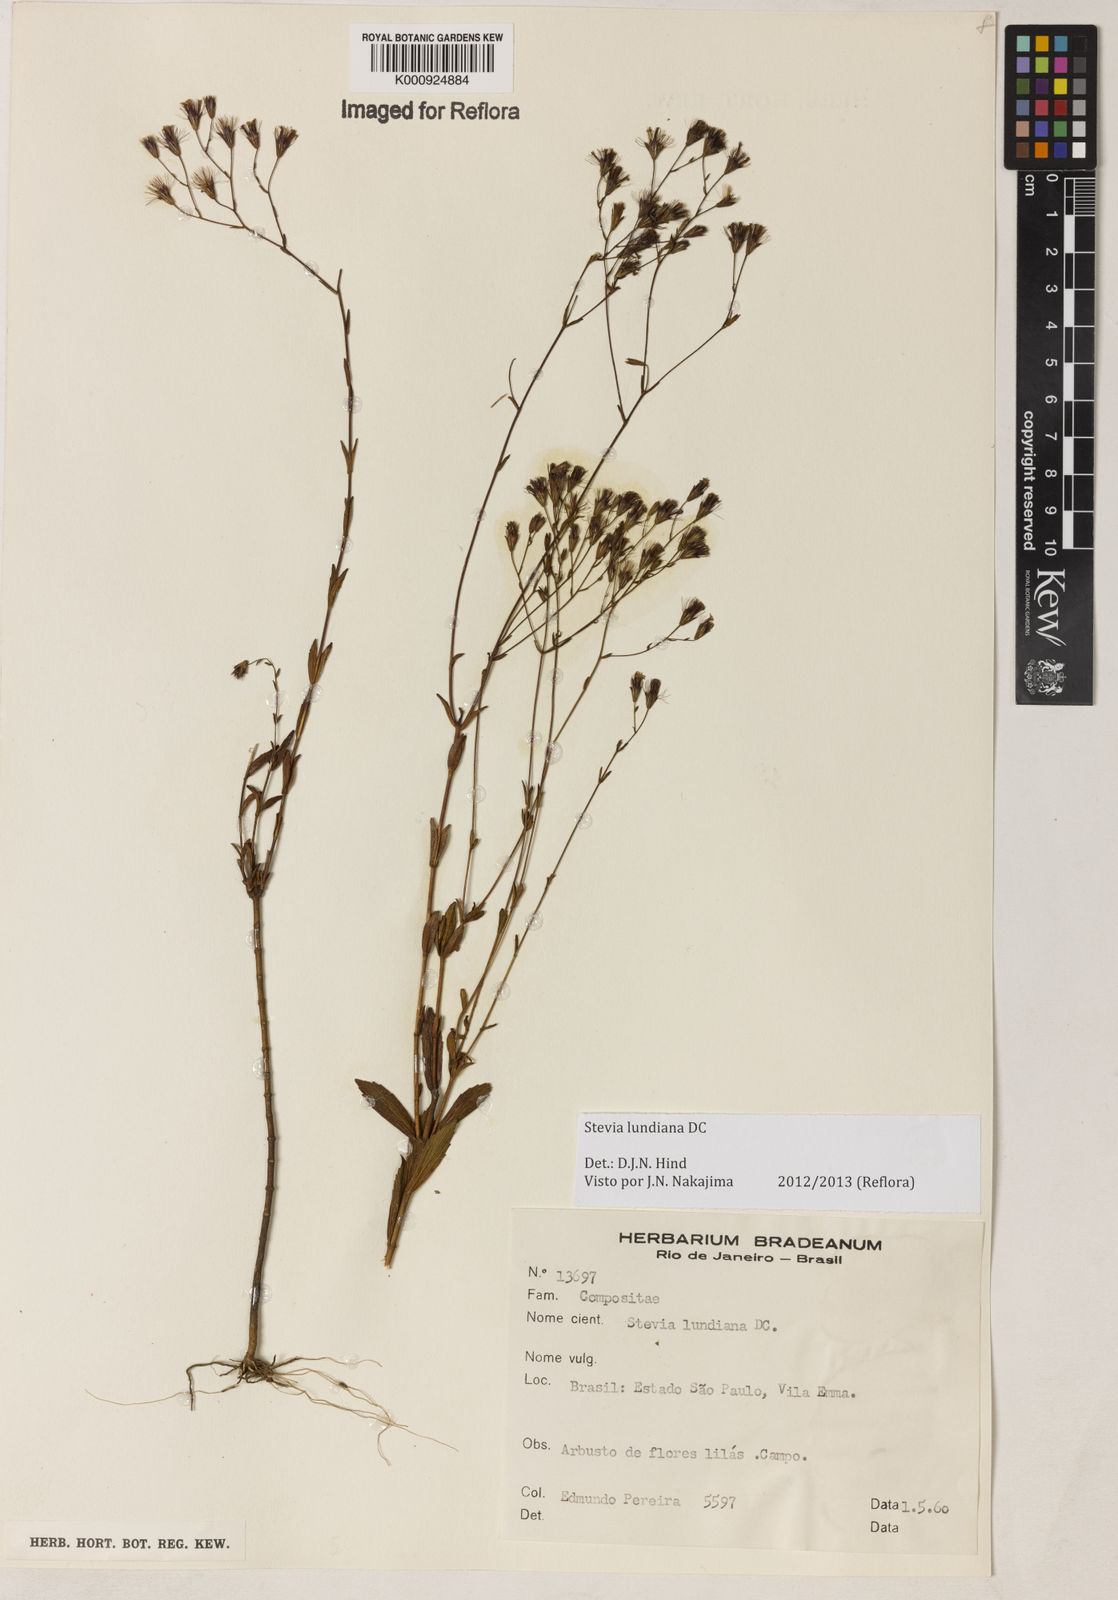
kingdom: Plantae
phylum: Tracheophyta
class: Magnoliopsida
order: Asterales
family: Asteraceae
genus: Stevia
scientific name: Stevia lundiana
